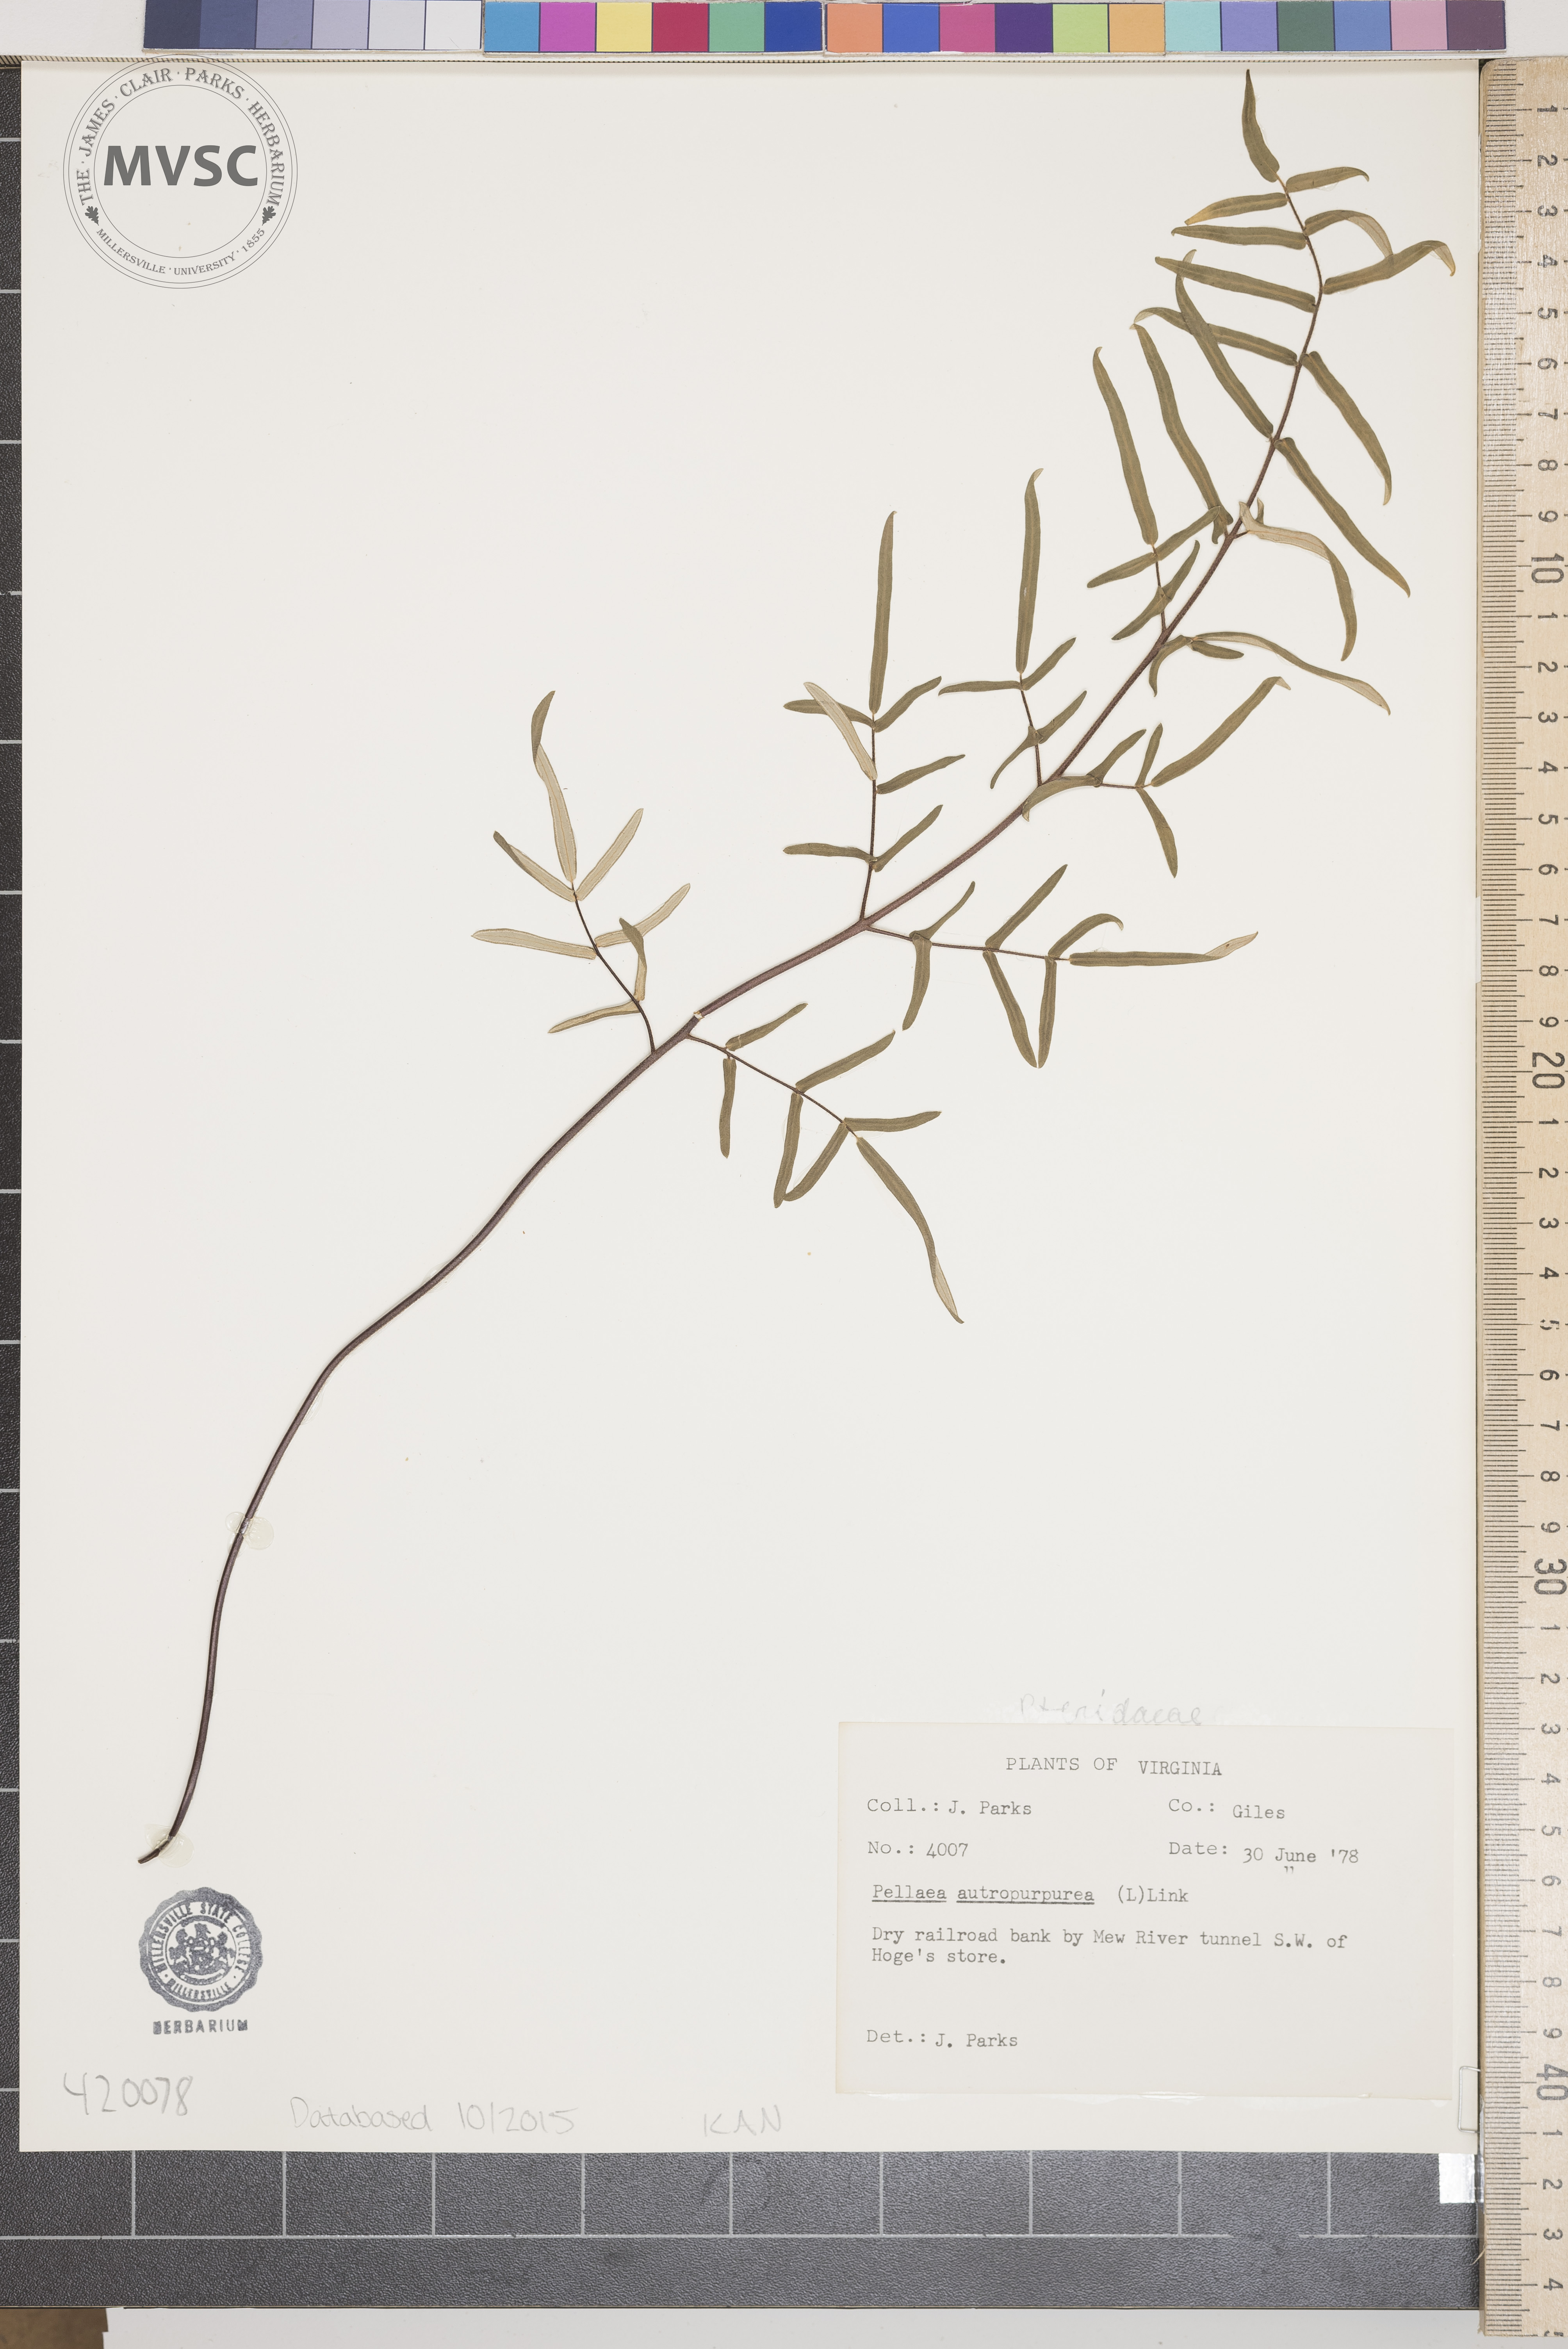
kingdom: Plantae
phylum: Tracheophyta
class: Polypodiopsida
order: Polypodiales
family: Pteridaceae
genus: Pellaea
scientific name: Pellaea atropurpurea
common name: Hairy cliffbrake
